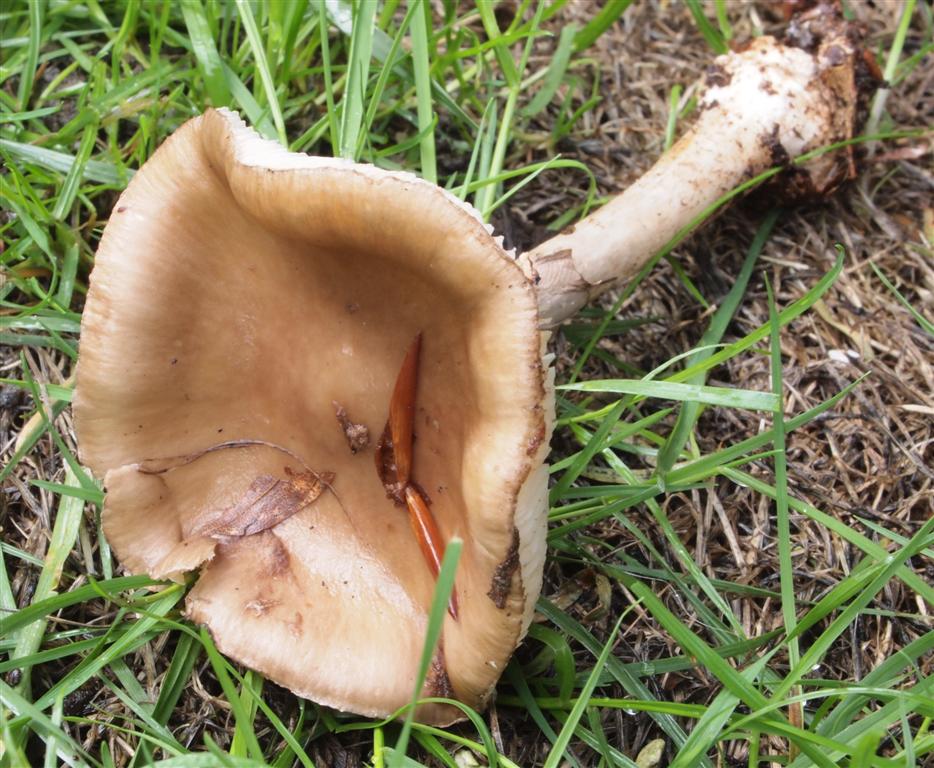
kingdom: Fungi
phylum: Basidiomycota
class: Agaricomycetes
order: Agaricales
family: Amanitaceae
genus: Amanita
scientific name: Amanita porphyria
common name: porfyr-fluesvamp
